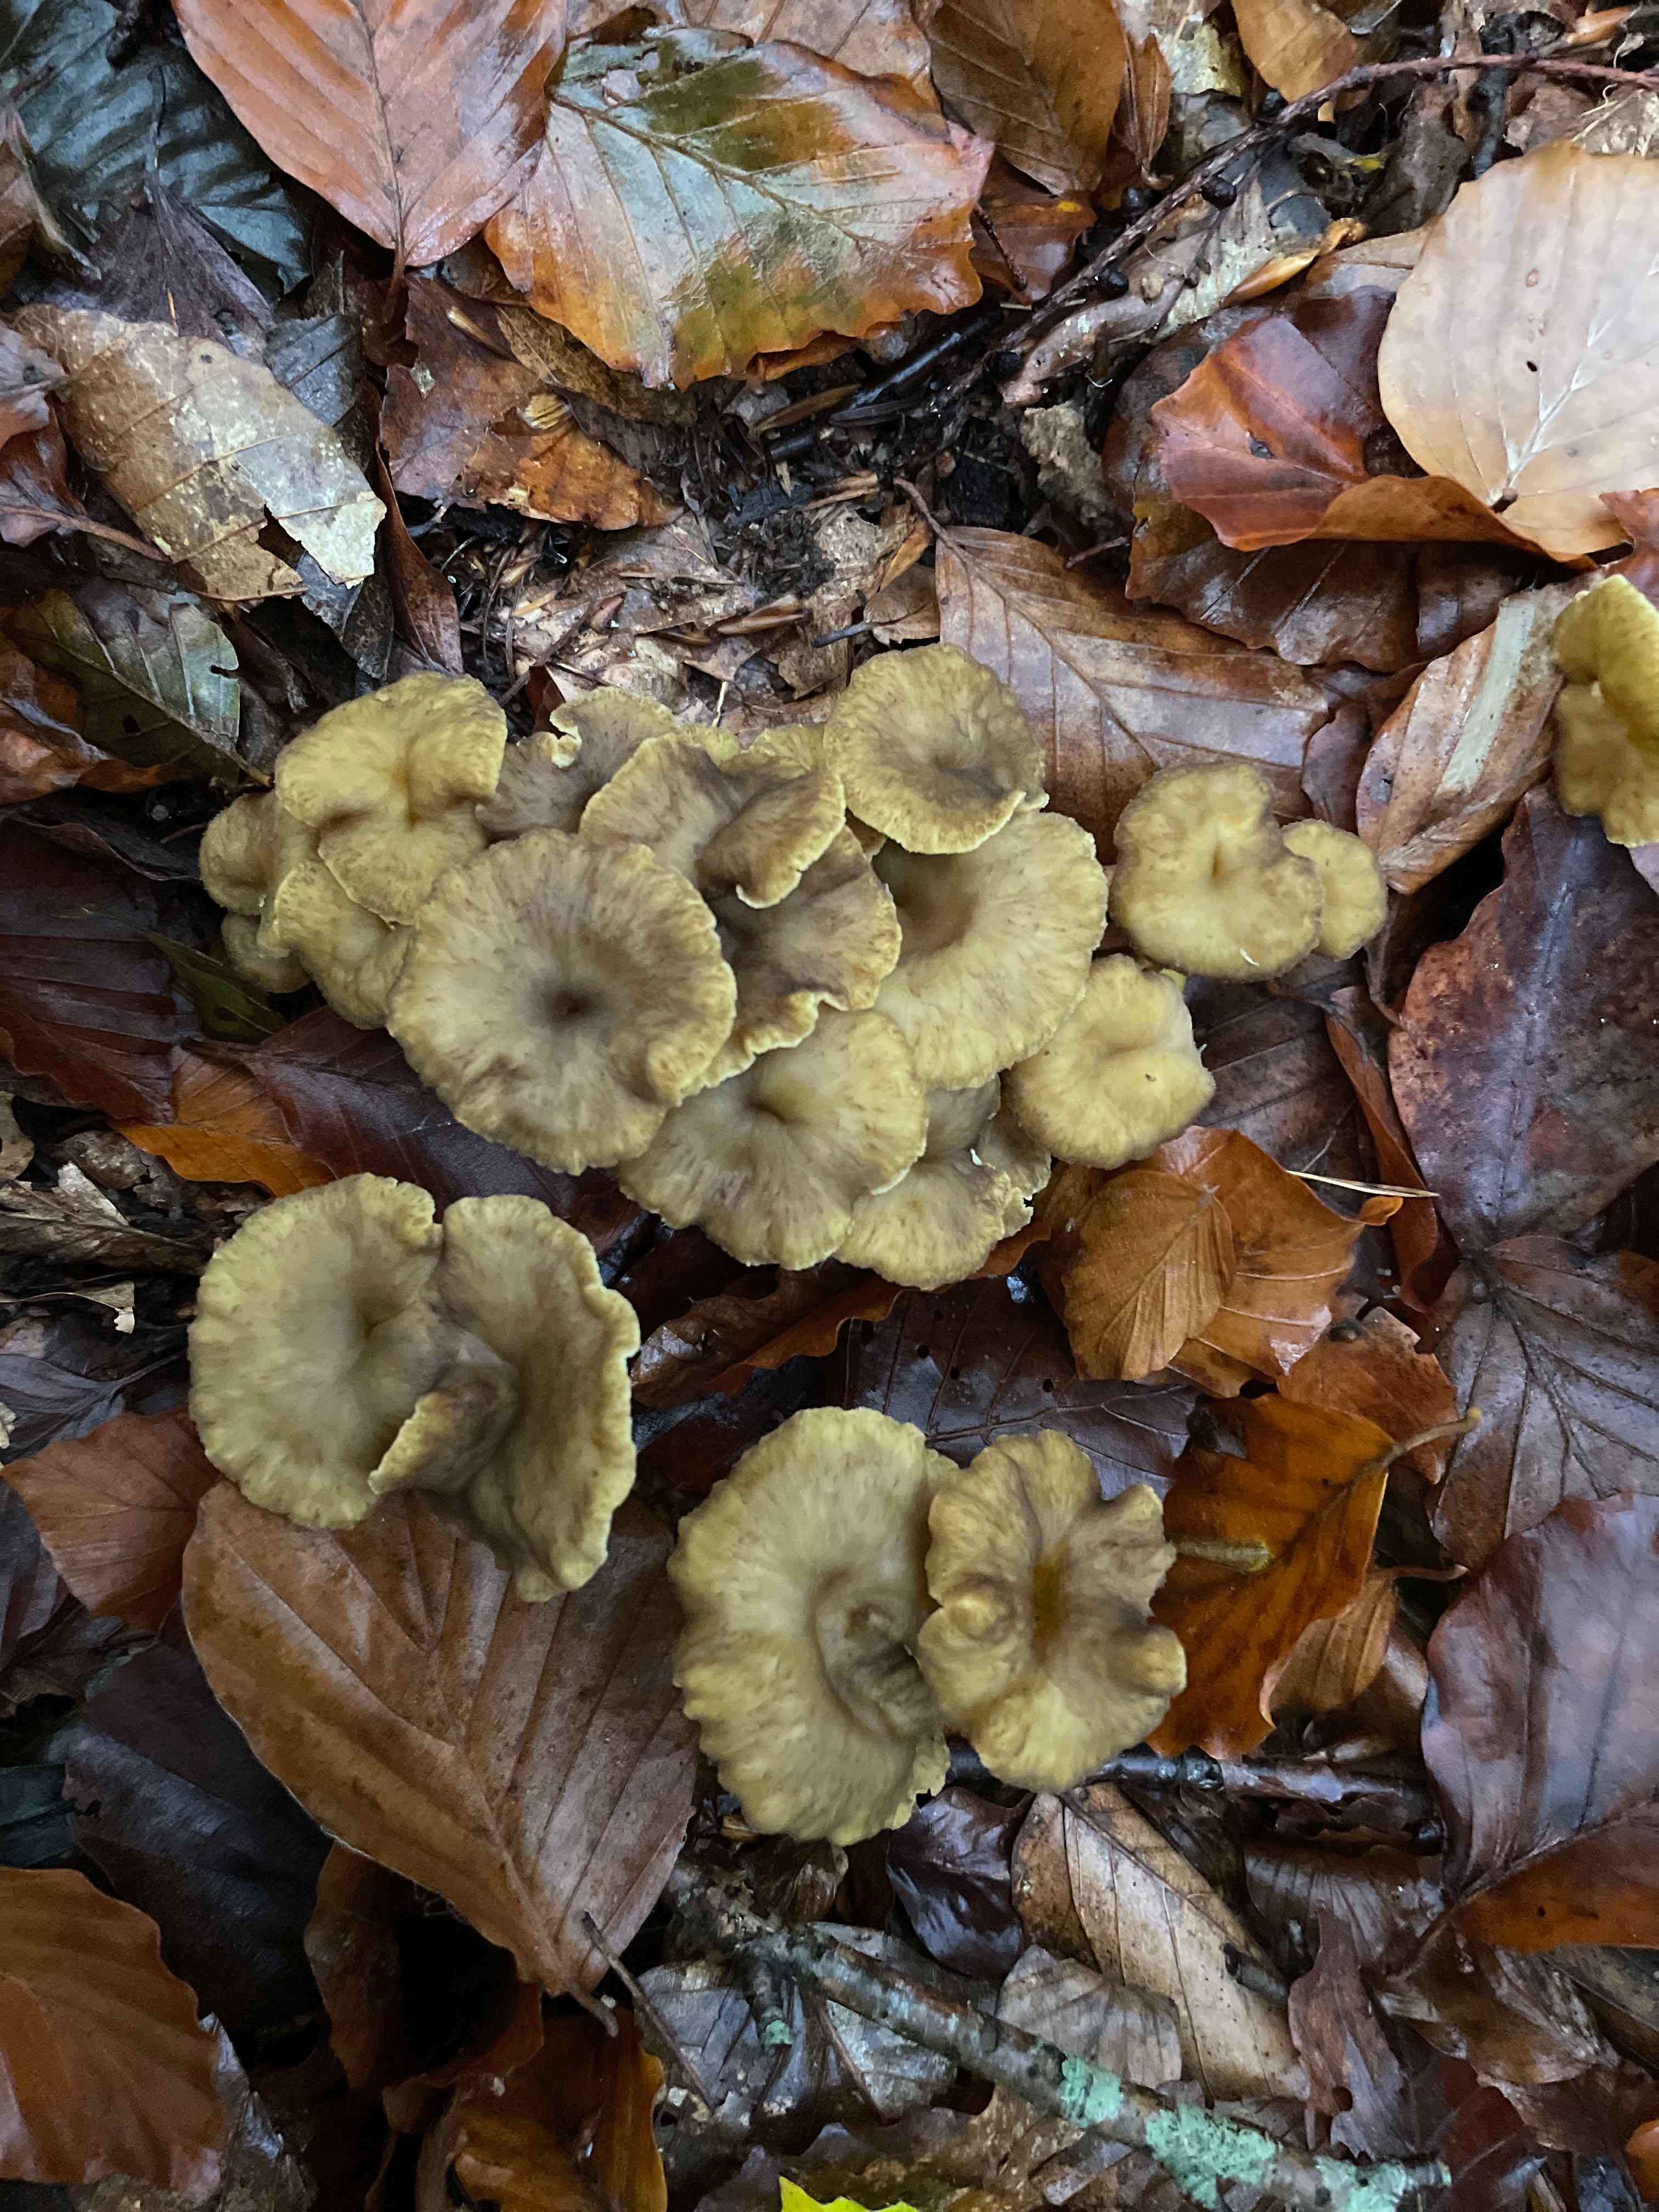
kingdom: Fungi
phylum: Basidiomycota
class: Agaricomycetes
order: Cantharellales
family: Hydnaceae
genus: Craterellus
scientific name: Craterellus tubaeformis
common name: tragt-kantarel
